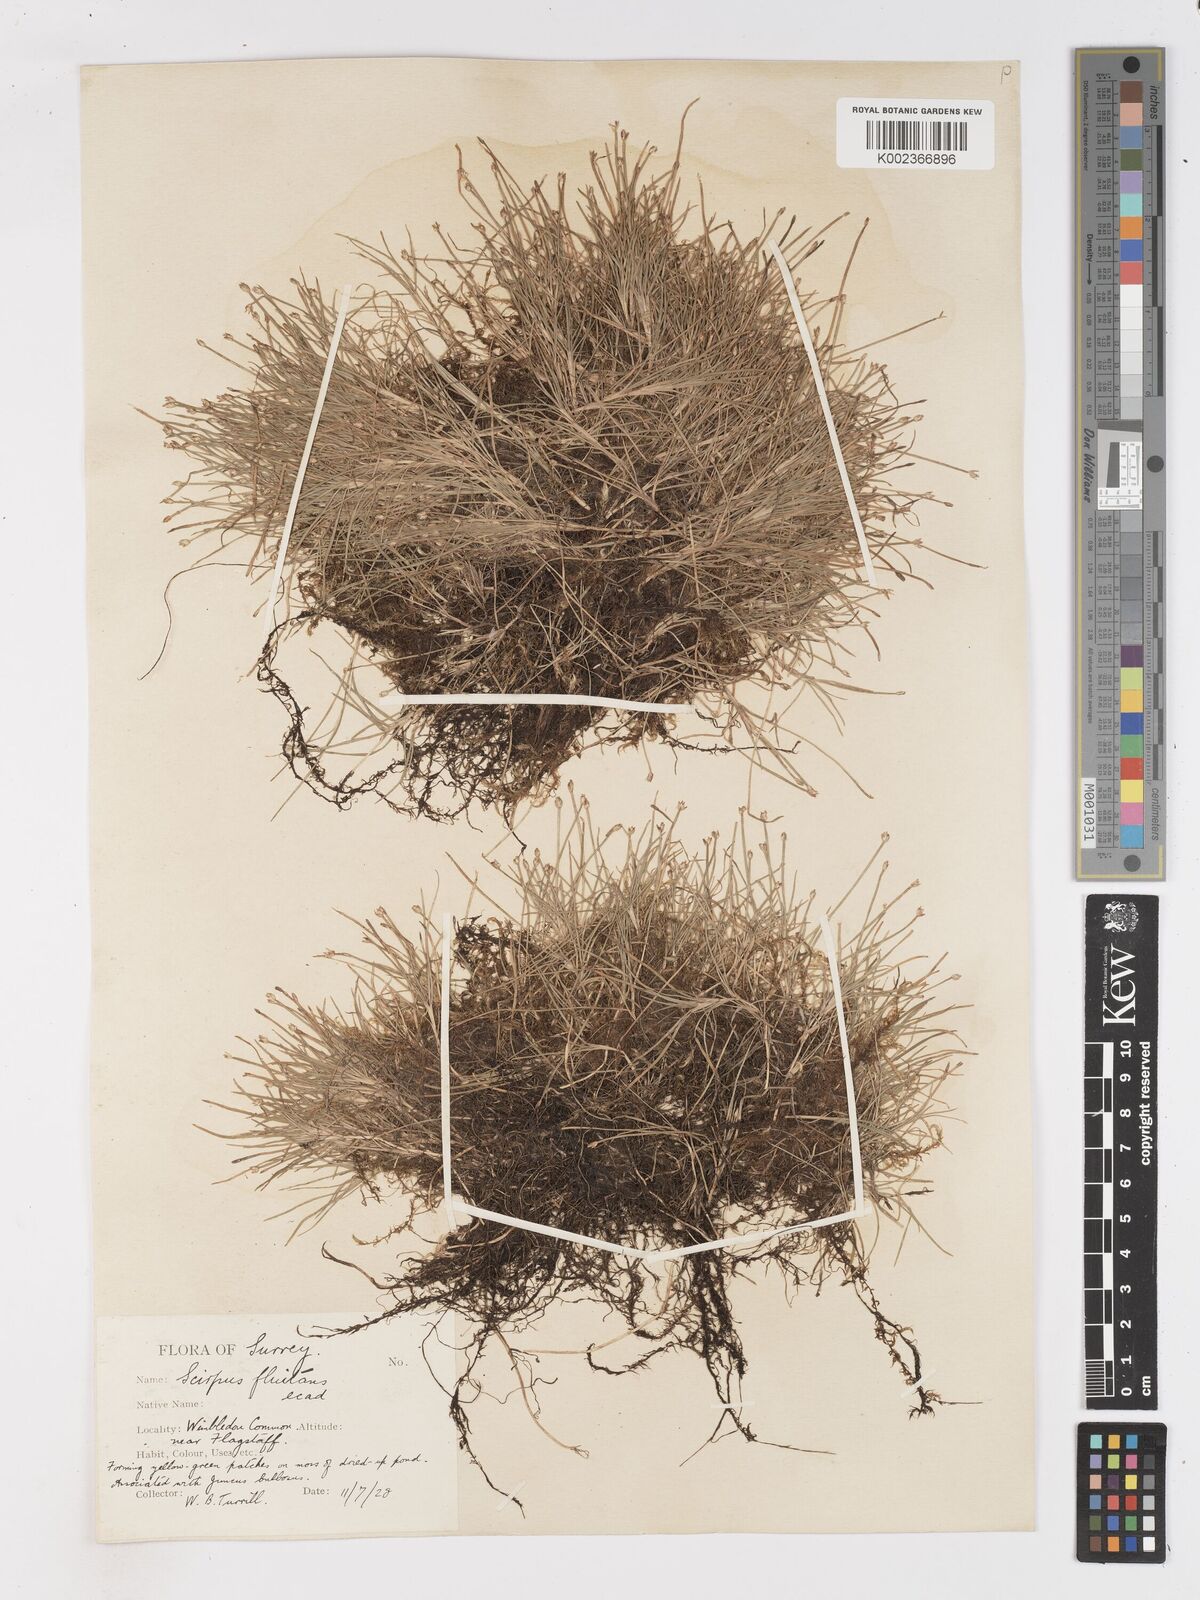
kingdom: Plantae
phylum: Tracheophyta
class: Liliopsida
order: Poales
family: Cyperaceae
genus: Isolepis
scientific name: Isolepis fluitans
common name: Floating club-rush
